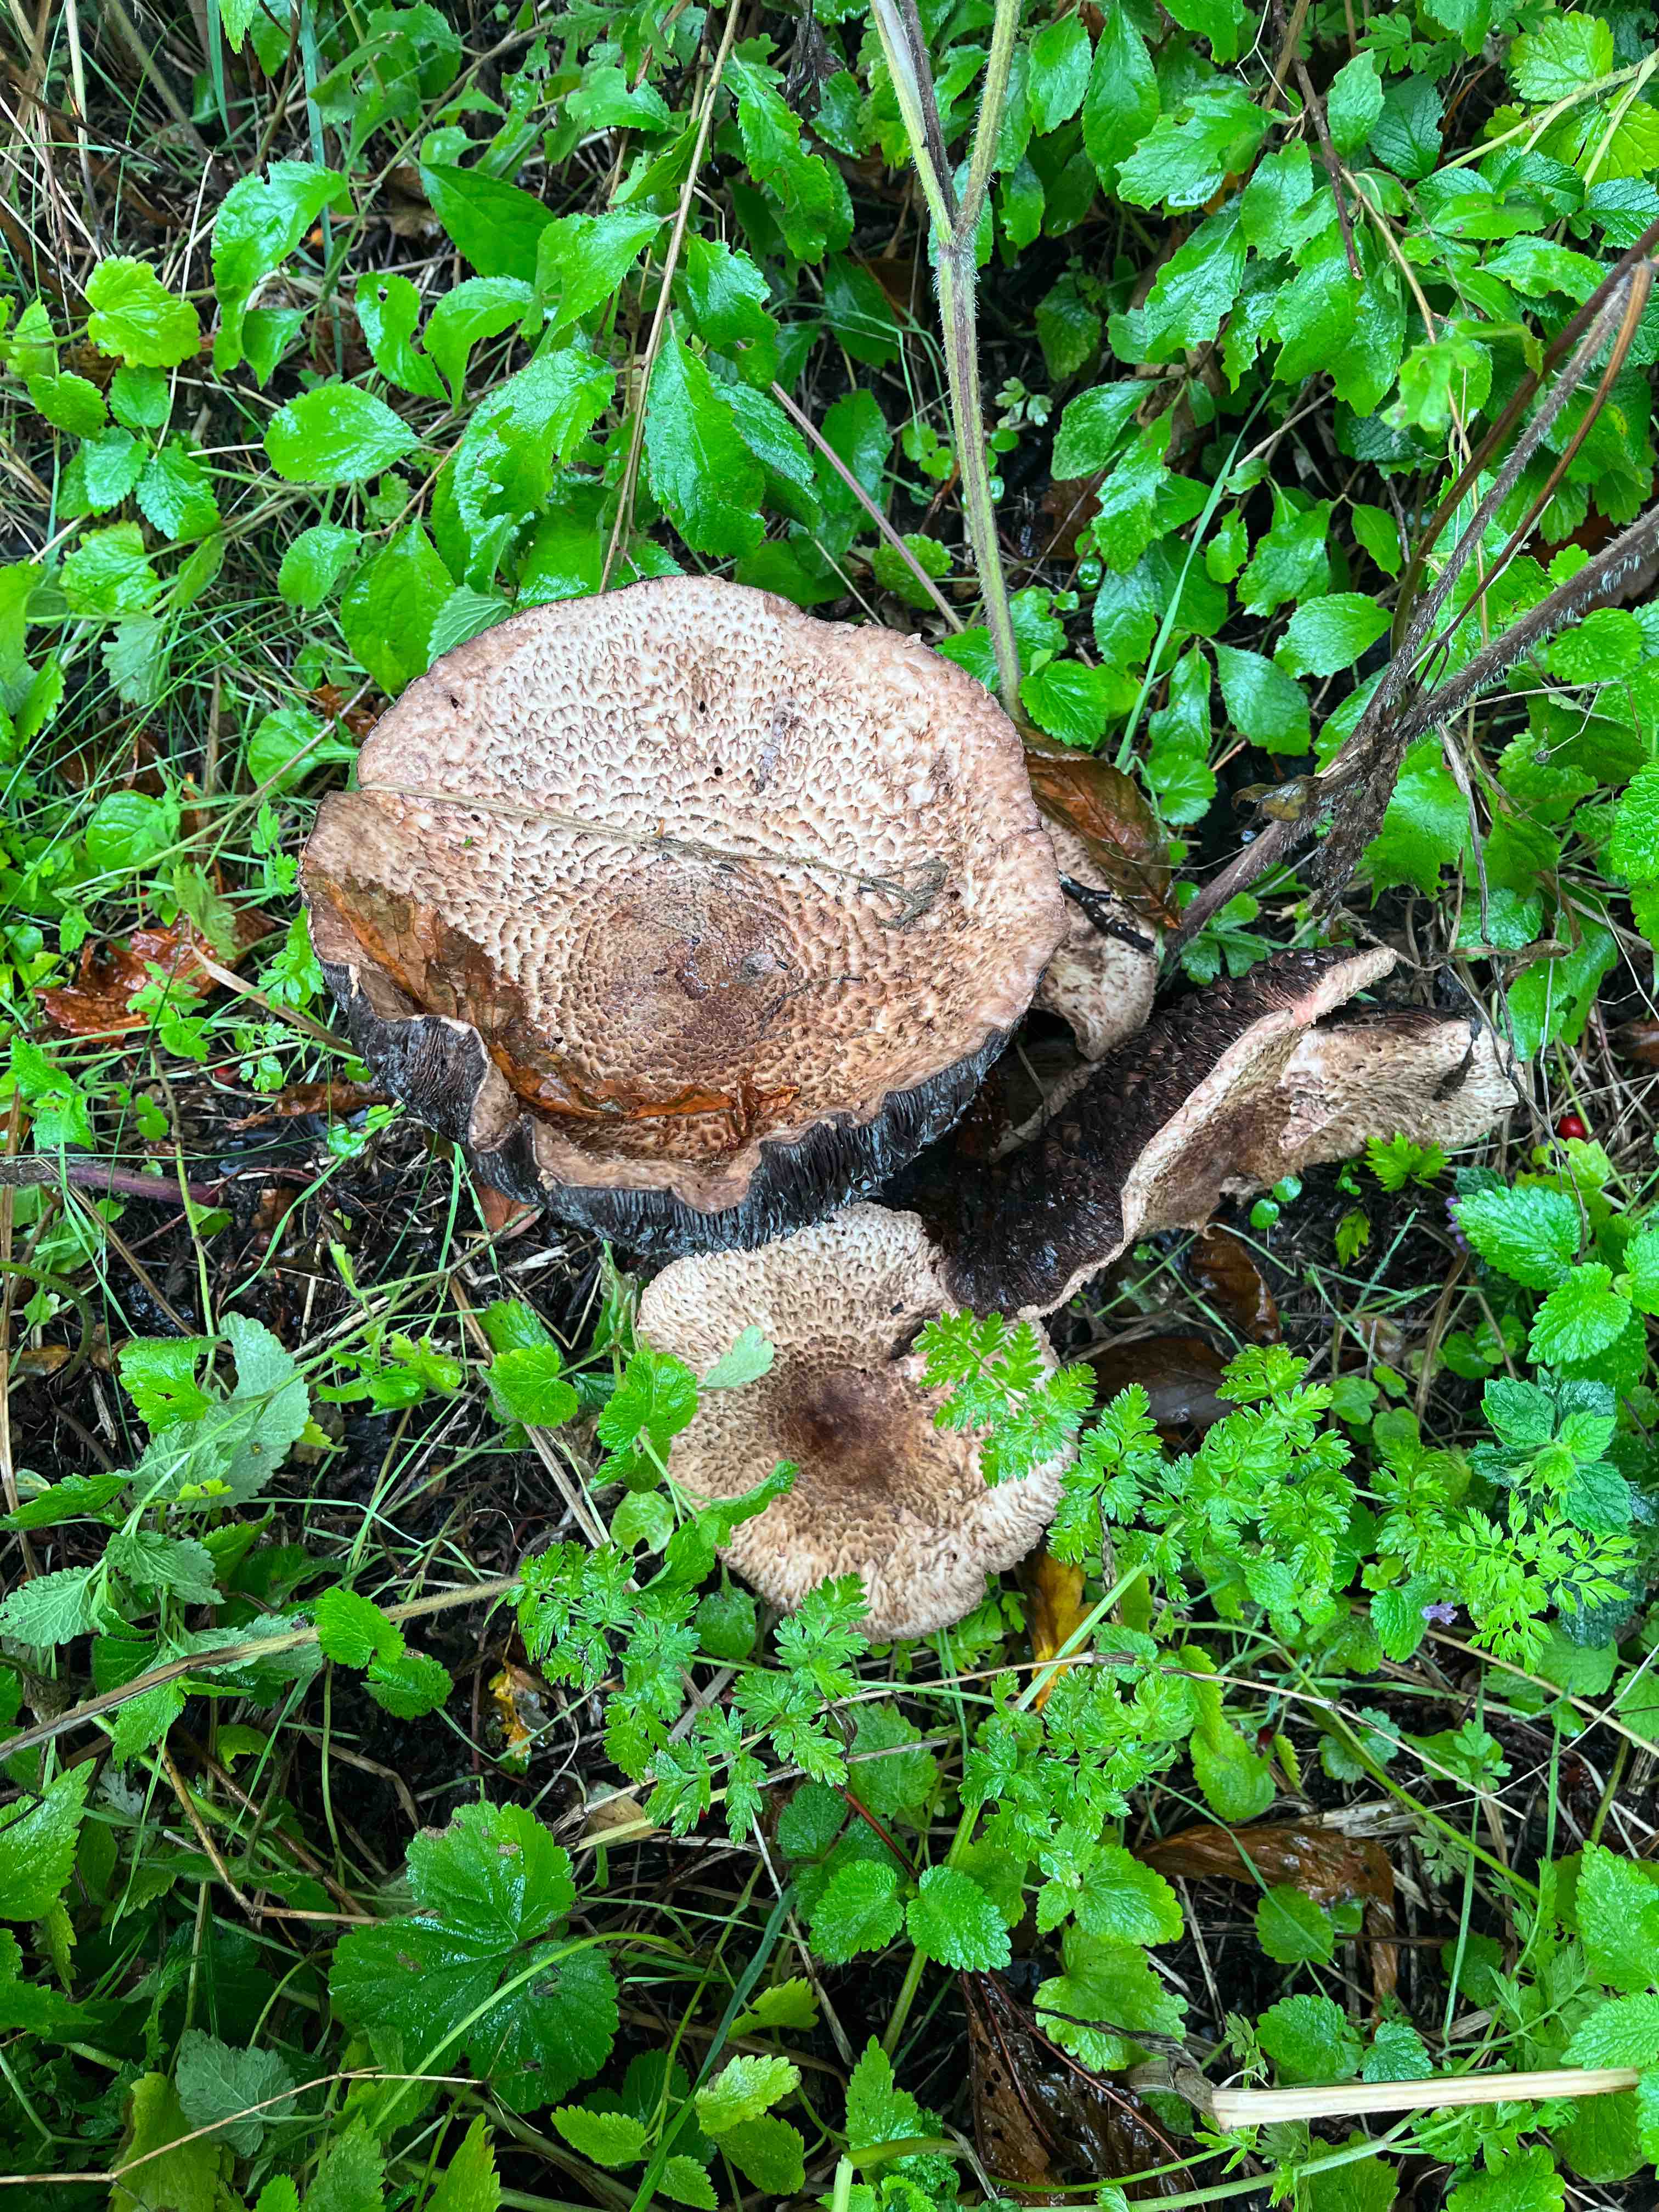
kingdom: Fungi
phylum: Basidiomycota
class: Agaricomycetes
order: Agaricales
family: Agaricaceae
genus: Agaricus
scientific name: Agaricus
